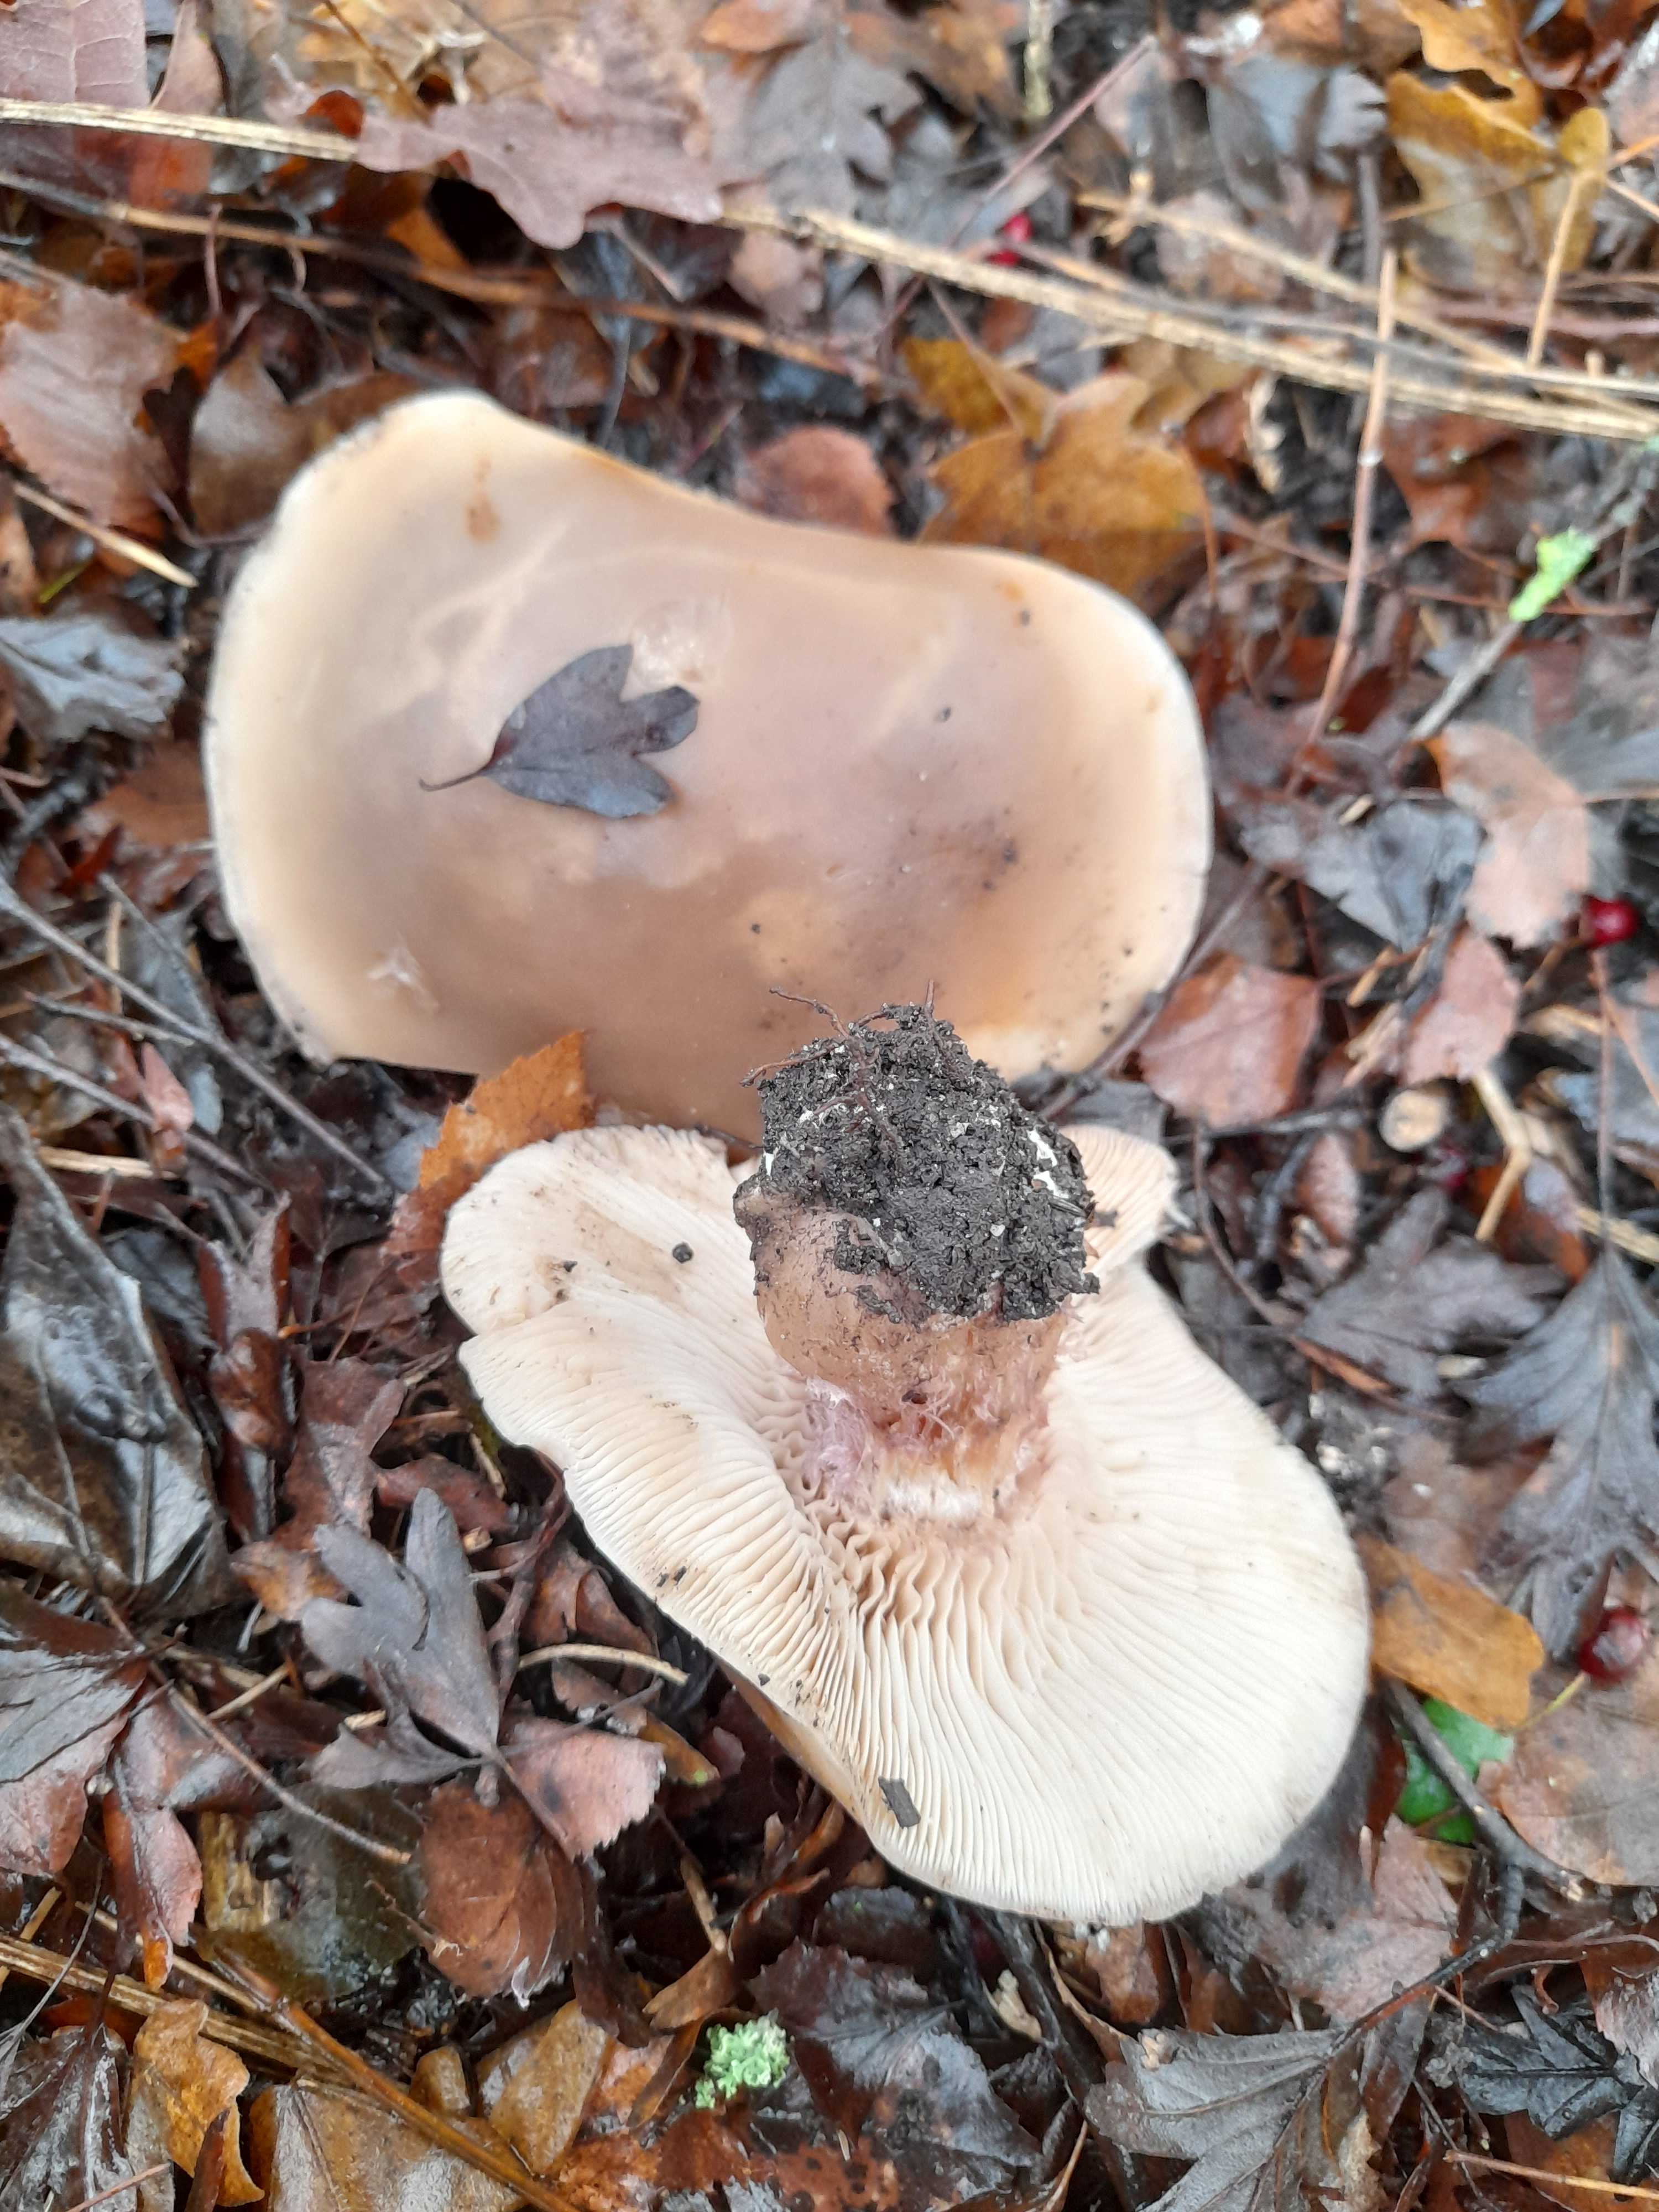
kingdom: Fungi
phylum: Basidiomycota
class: Agaricomycetes
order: Agaricales
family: Tricholomataceae
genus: Lepista
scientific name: Lepista personata
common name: bleg hekseringshat
